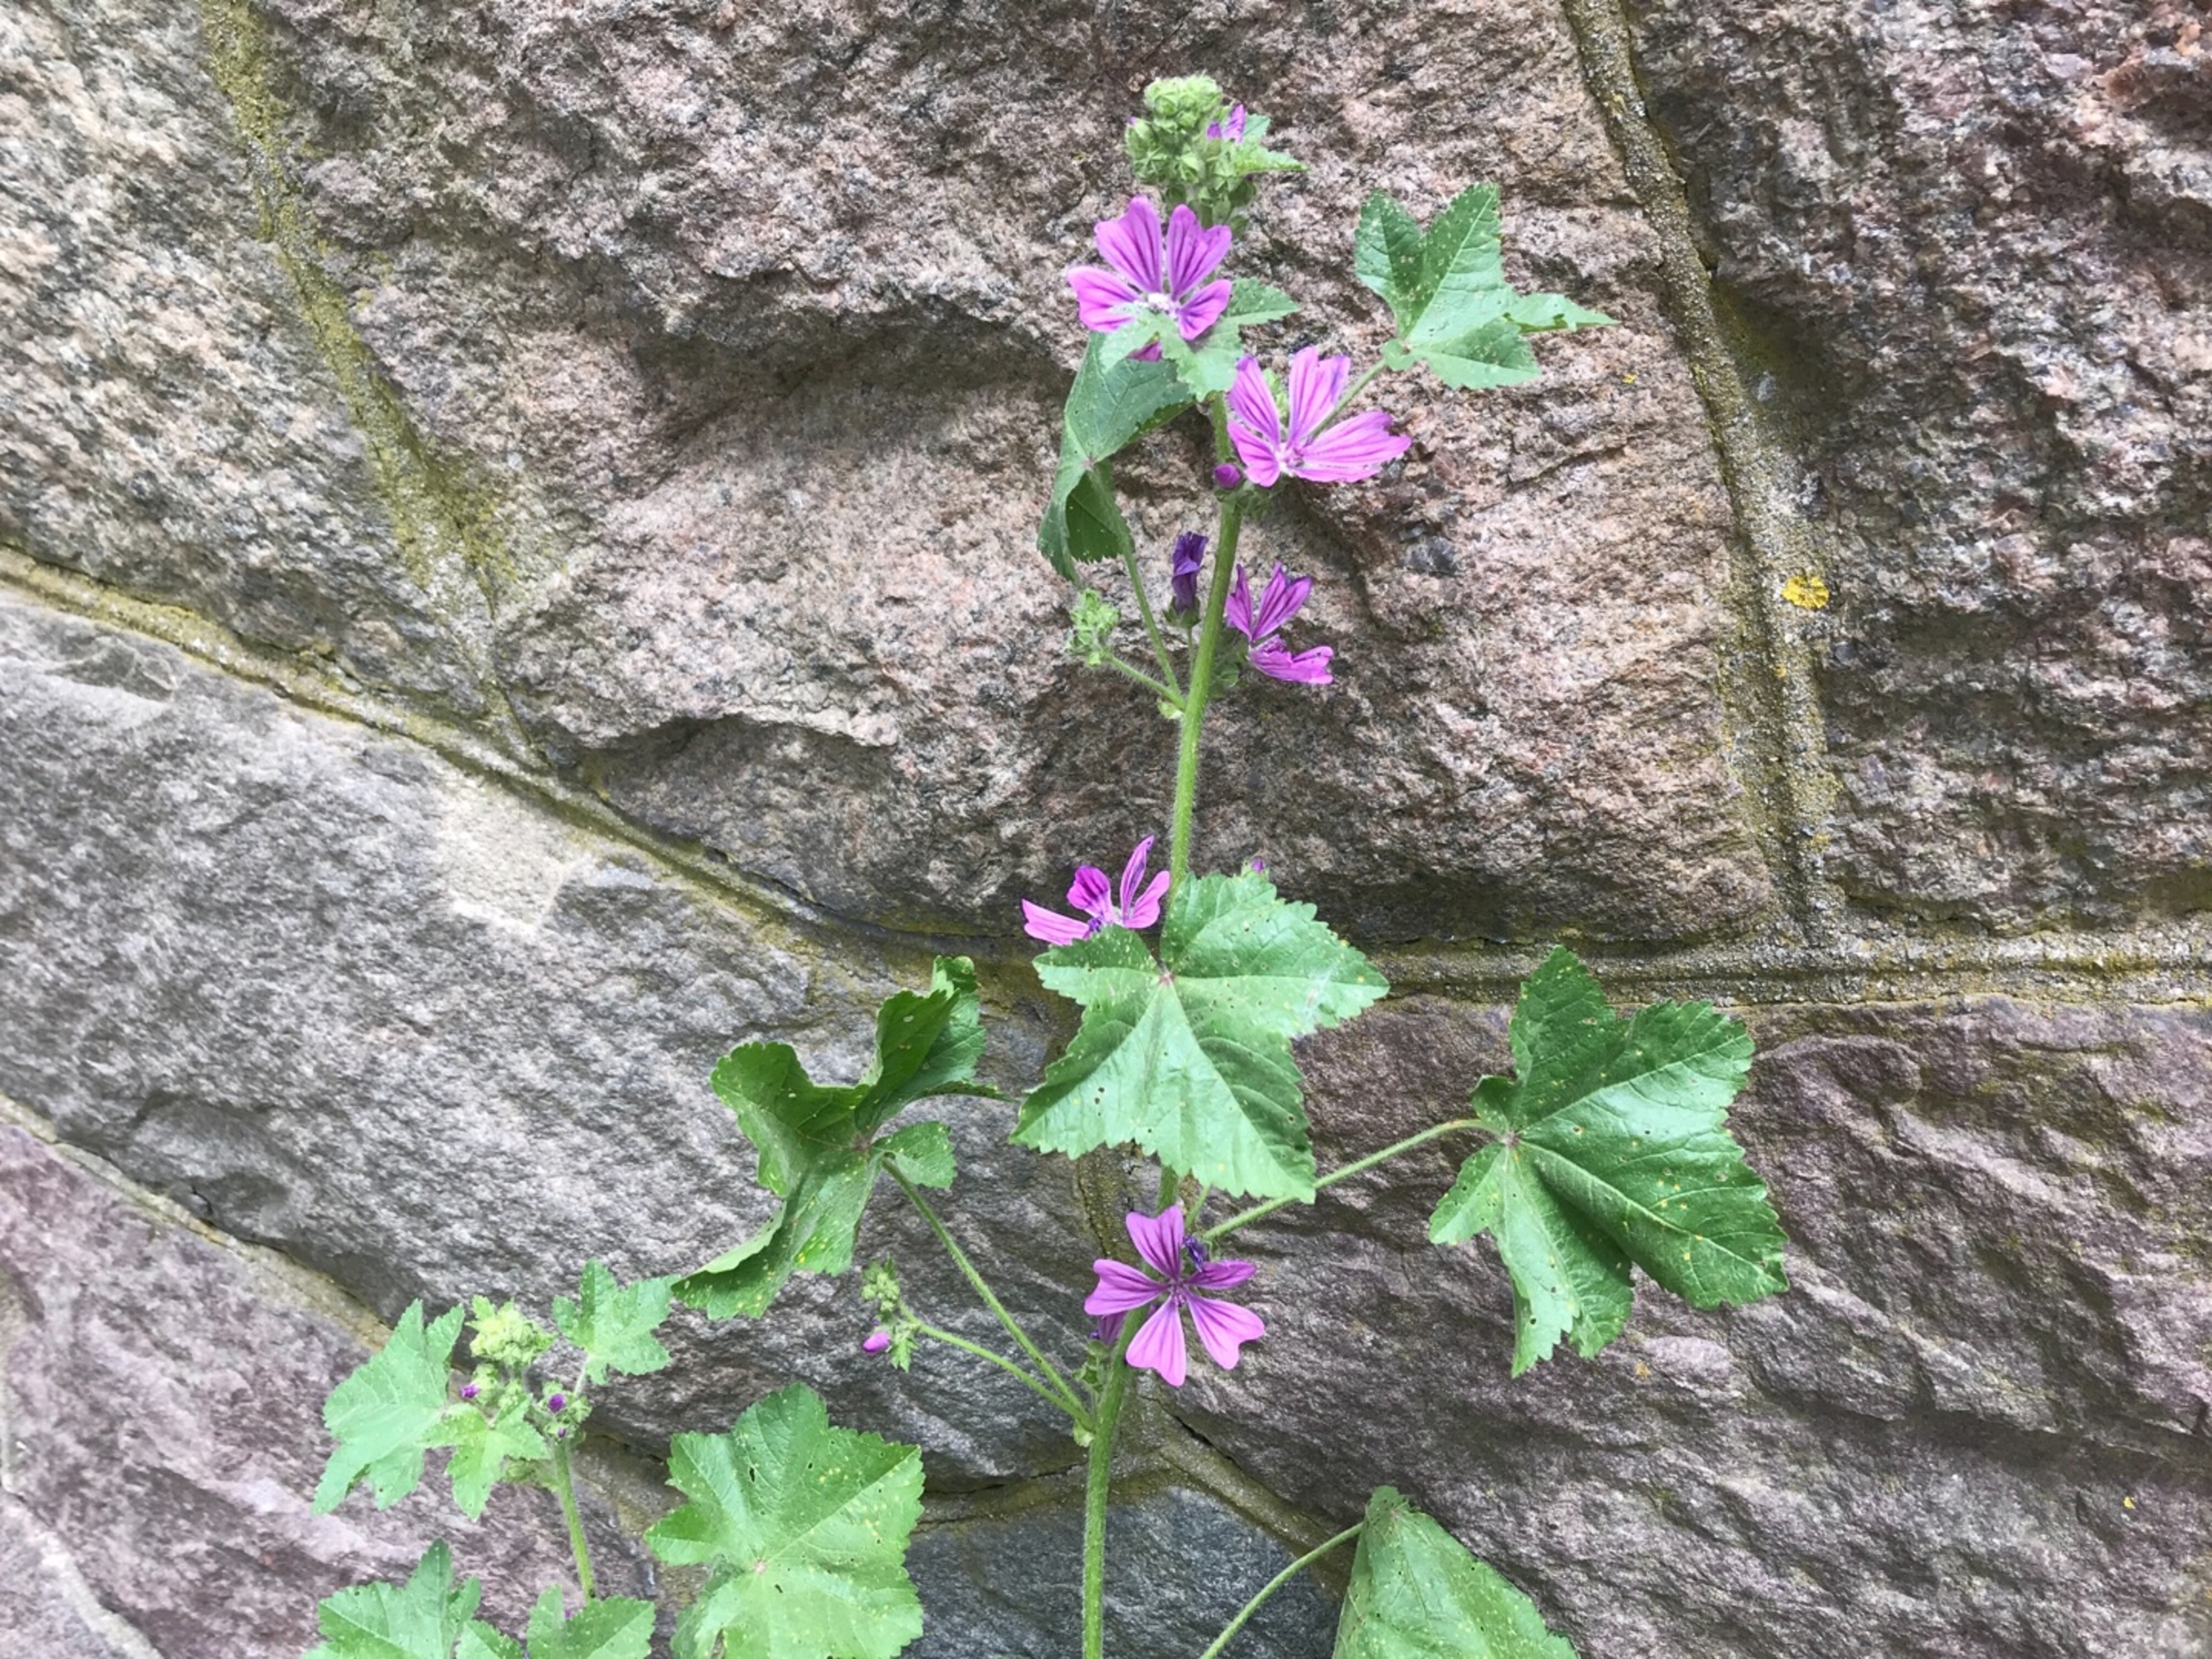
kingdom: Plantae
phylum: Tracheophyta
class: Magnoliopsida
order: Malvales
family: Malvaceae
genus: Malva
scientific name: Malva sylvestris
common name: Almindelig katost
